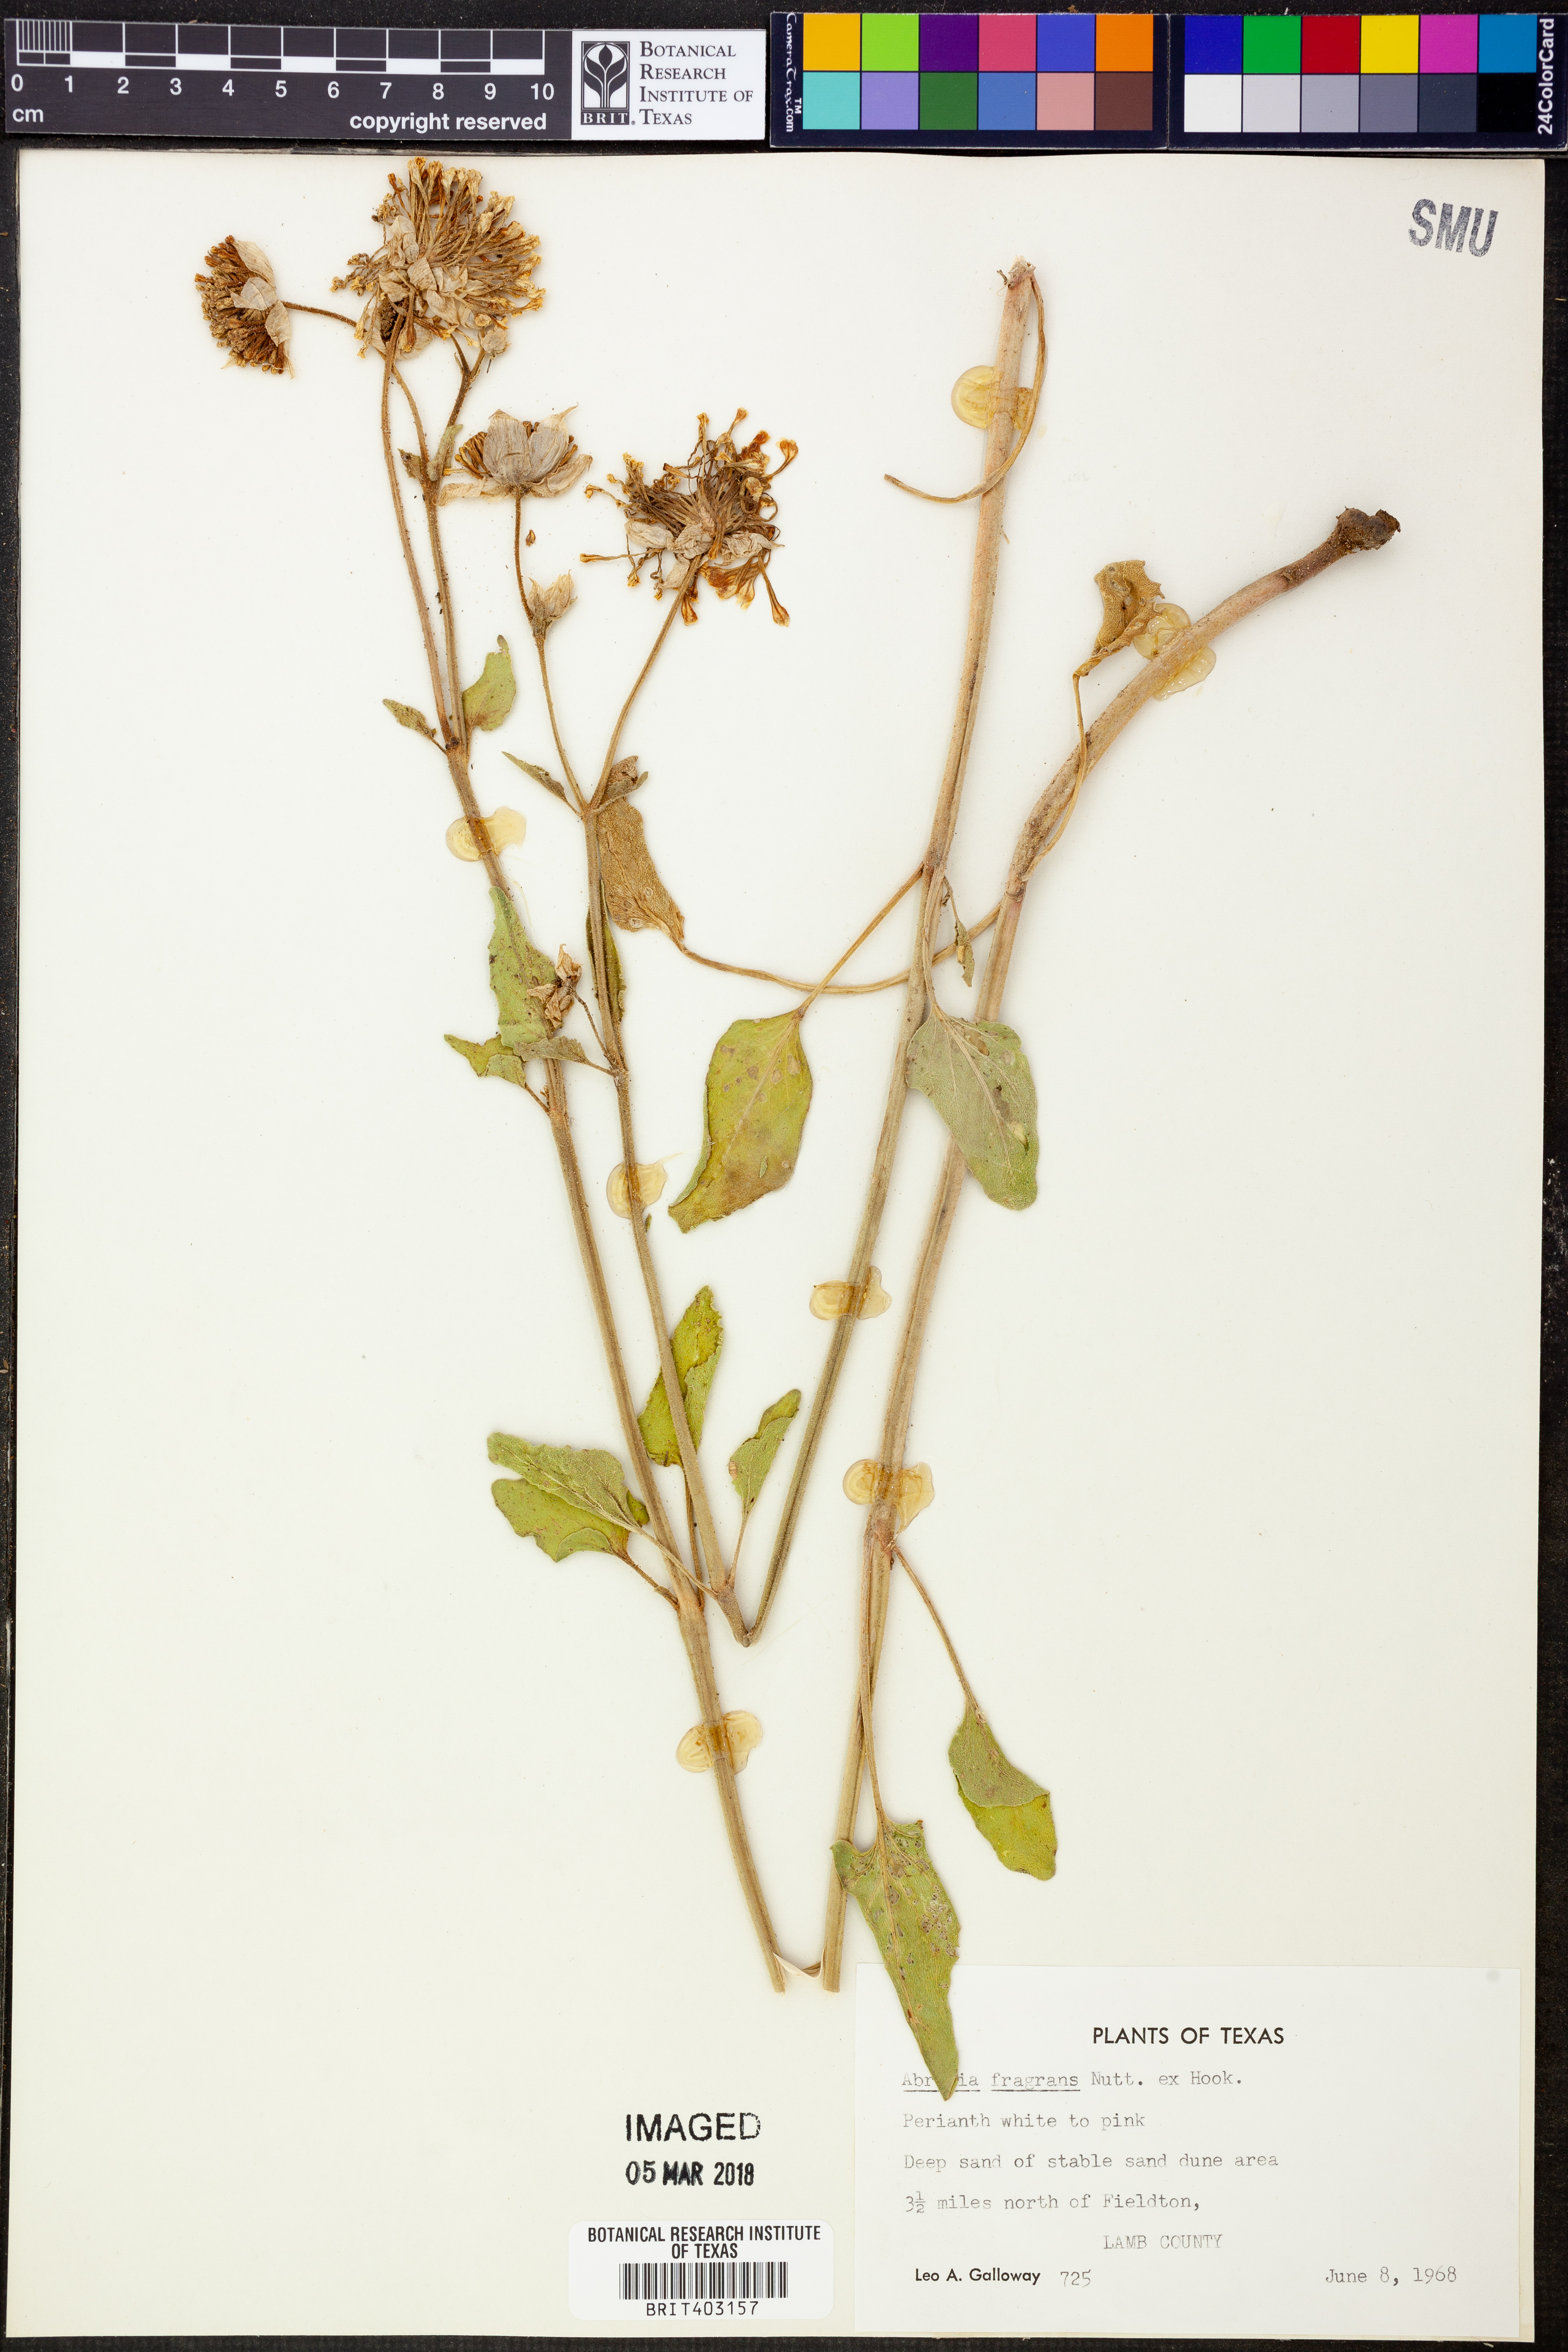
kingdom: Plantae
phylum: Tracheophyta
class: Magnoliopsida
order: Caryophyllales
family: Nyctaginaceae
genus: Abronia
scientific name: Abronia fragrans
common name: Fragrant sand-verbena
